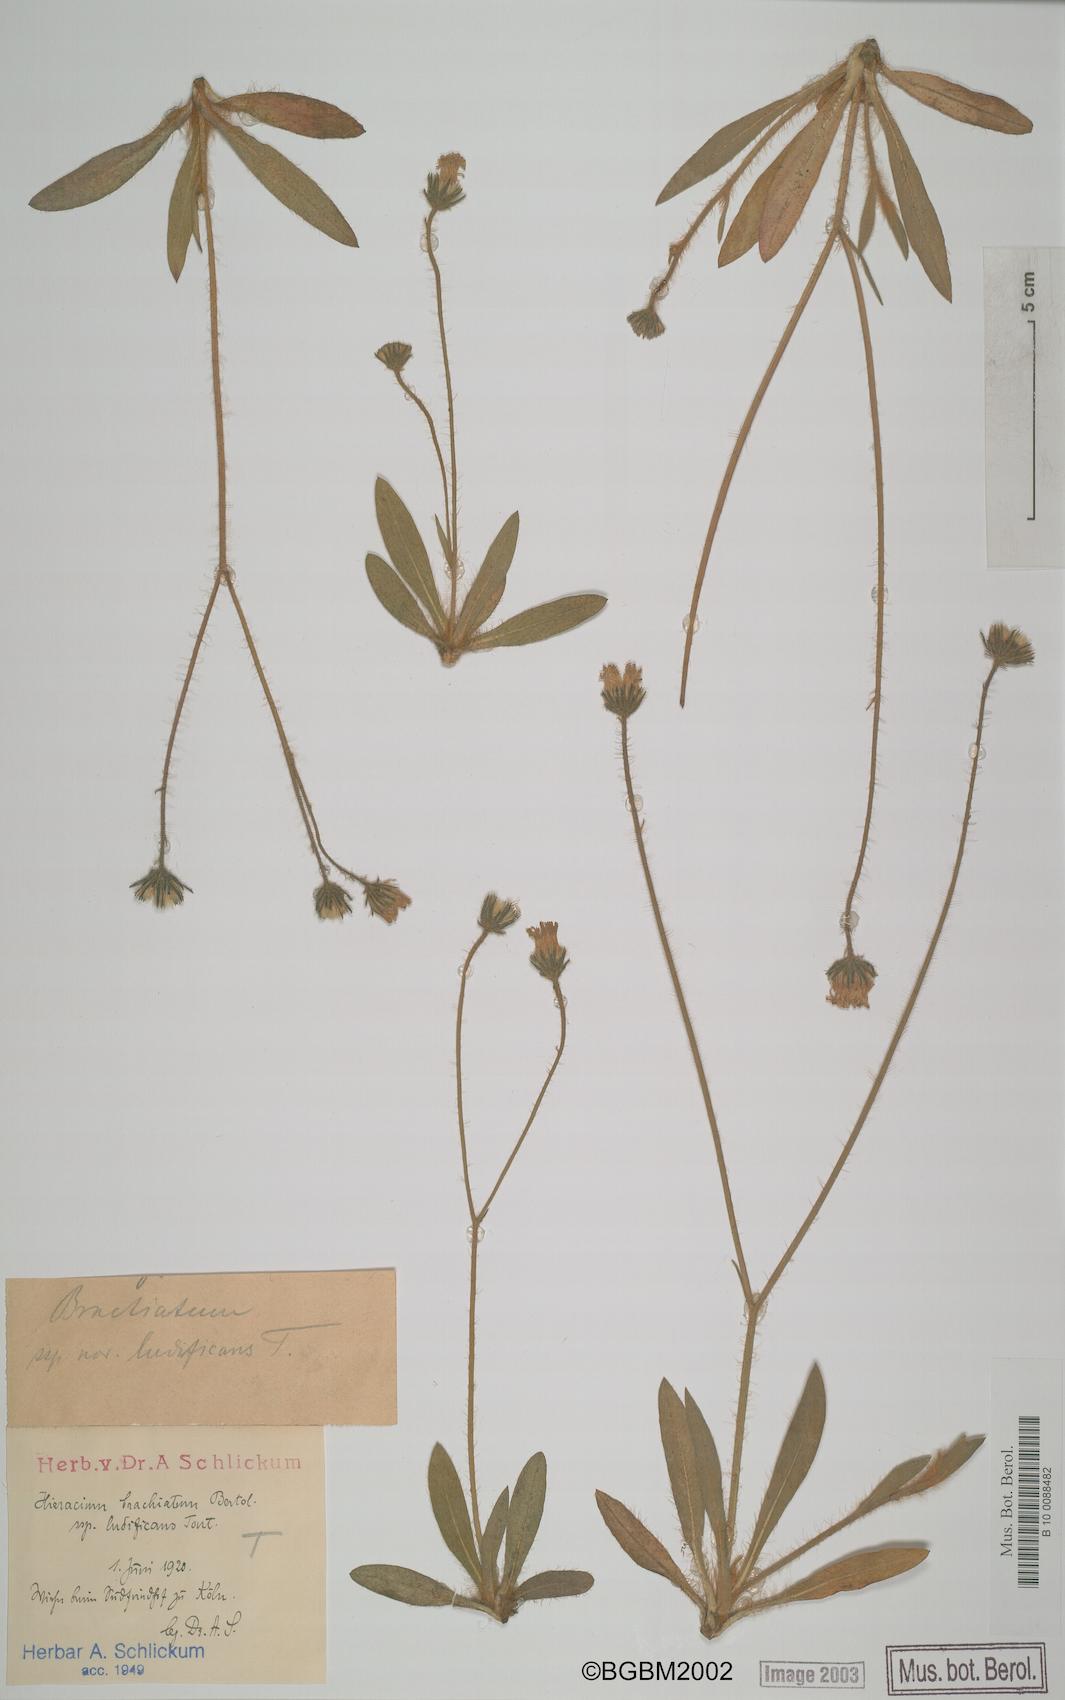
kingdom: Plantae
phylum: Tracheophyta
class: Magnoliopsida
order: Asterales
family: Asteraceae
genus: Pilosella
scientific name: Pilosella acutifolia
